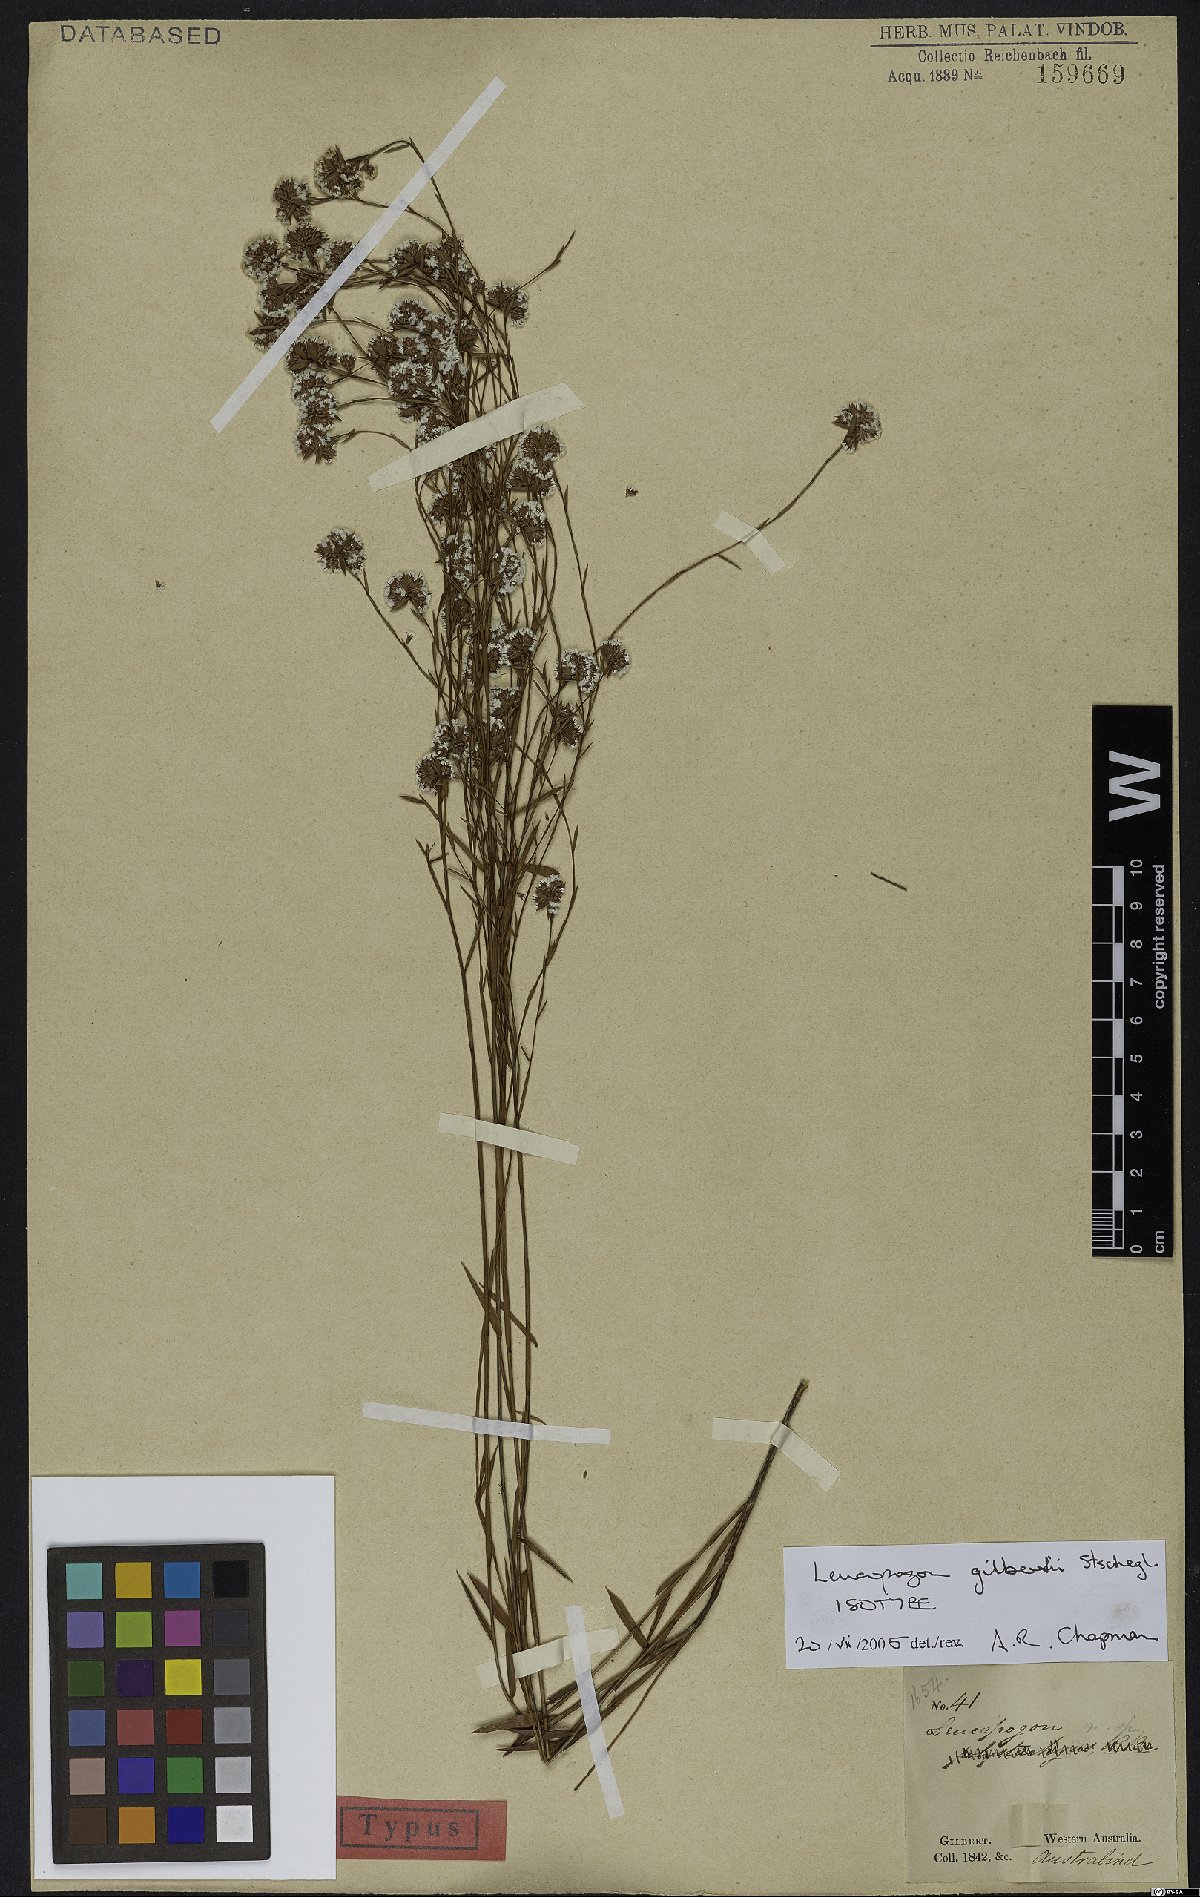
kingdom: Plantae
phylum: Tracheophyta
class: Magnoliopsida
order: Ericales
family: Ericaceae
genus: Leucopogon
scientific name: Leucopogon gilbertii
